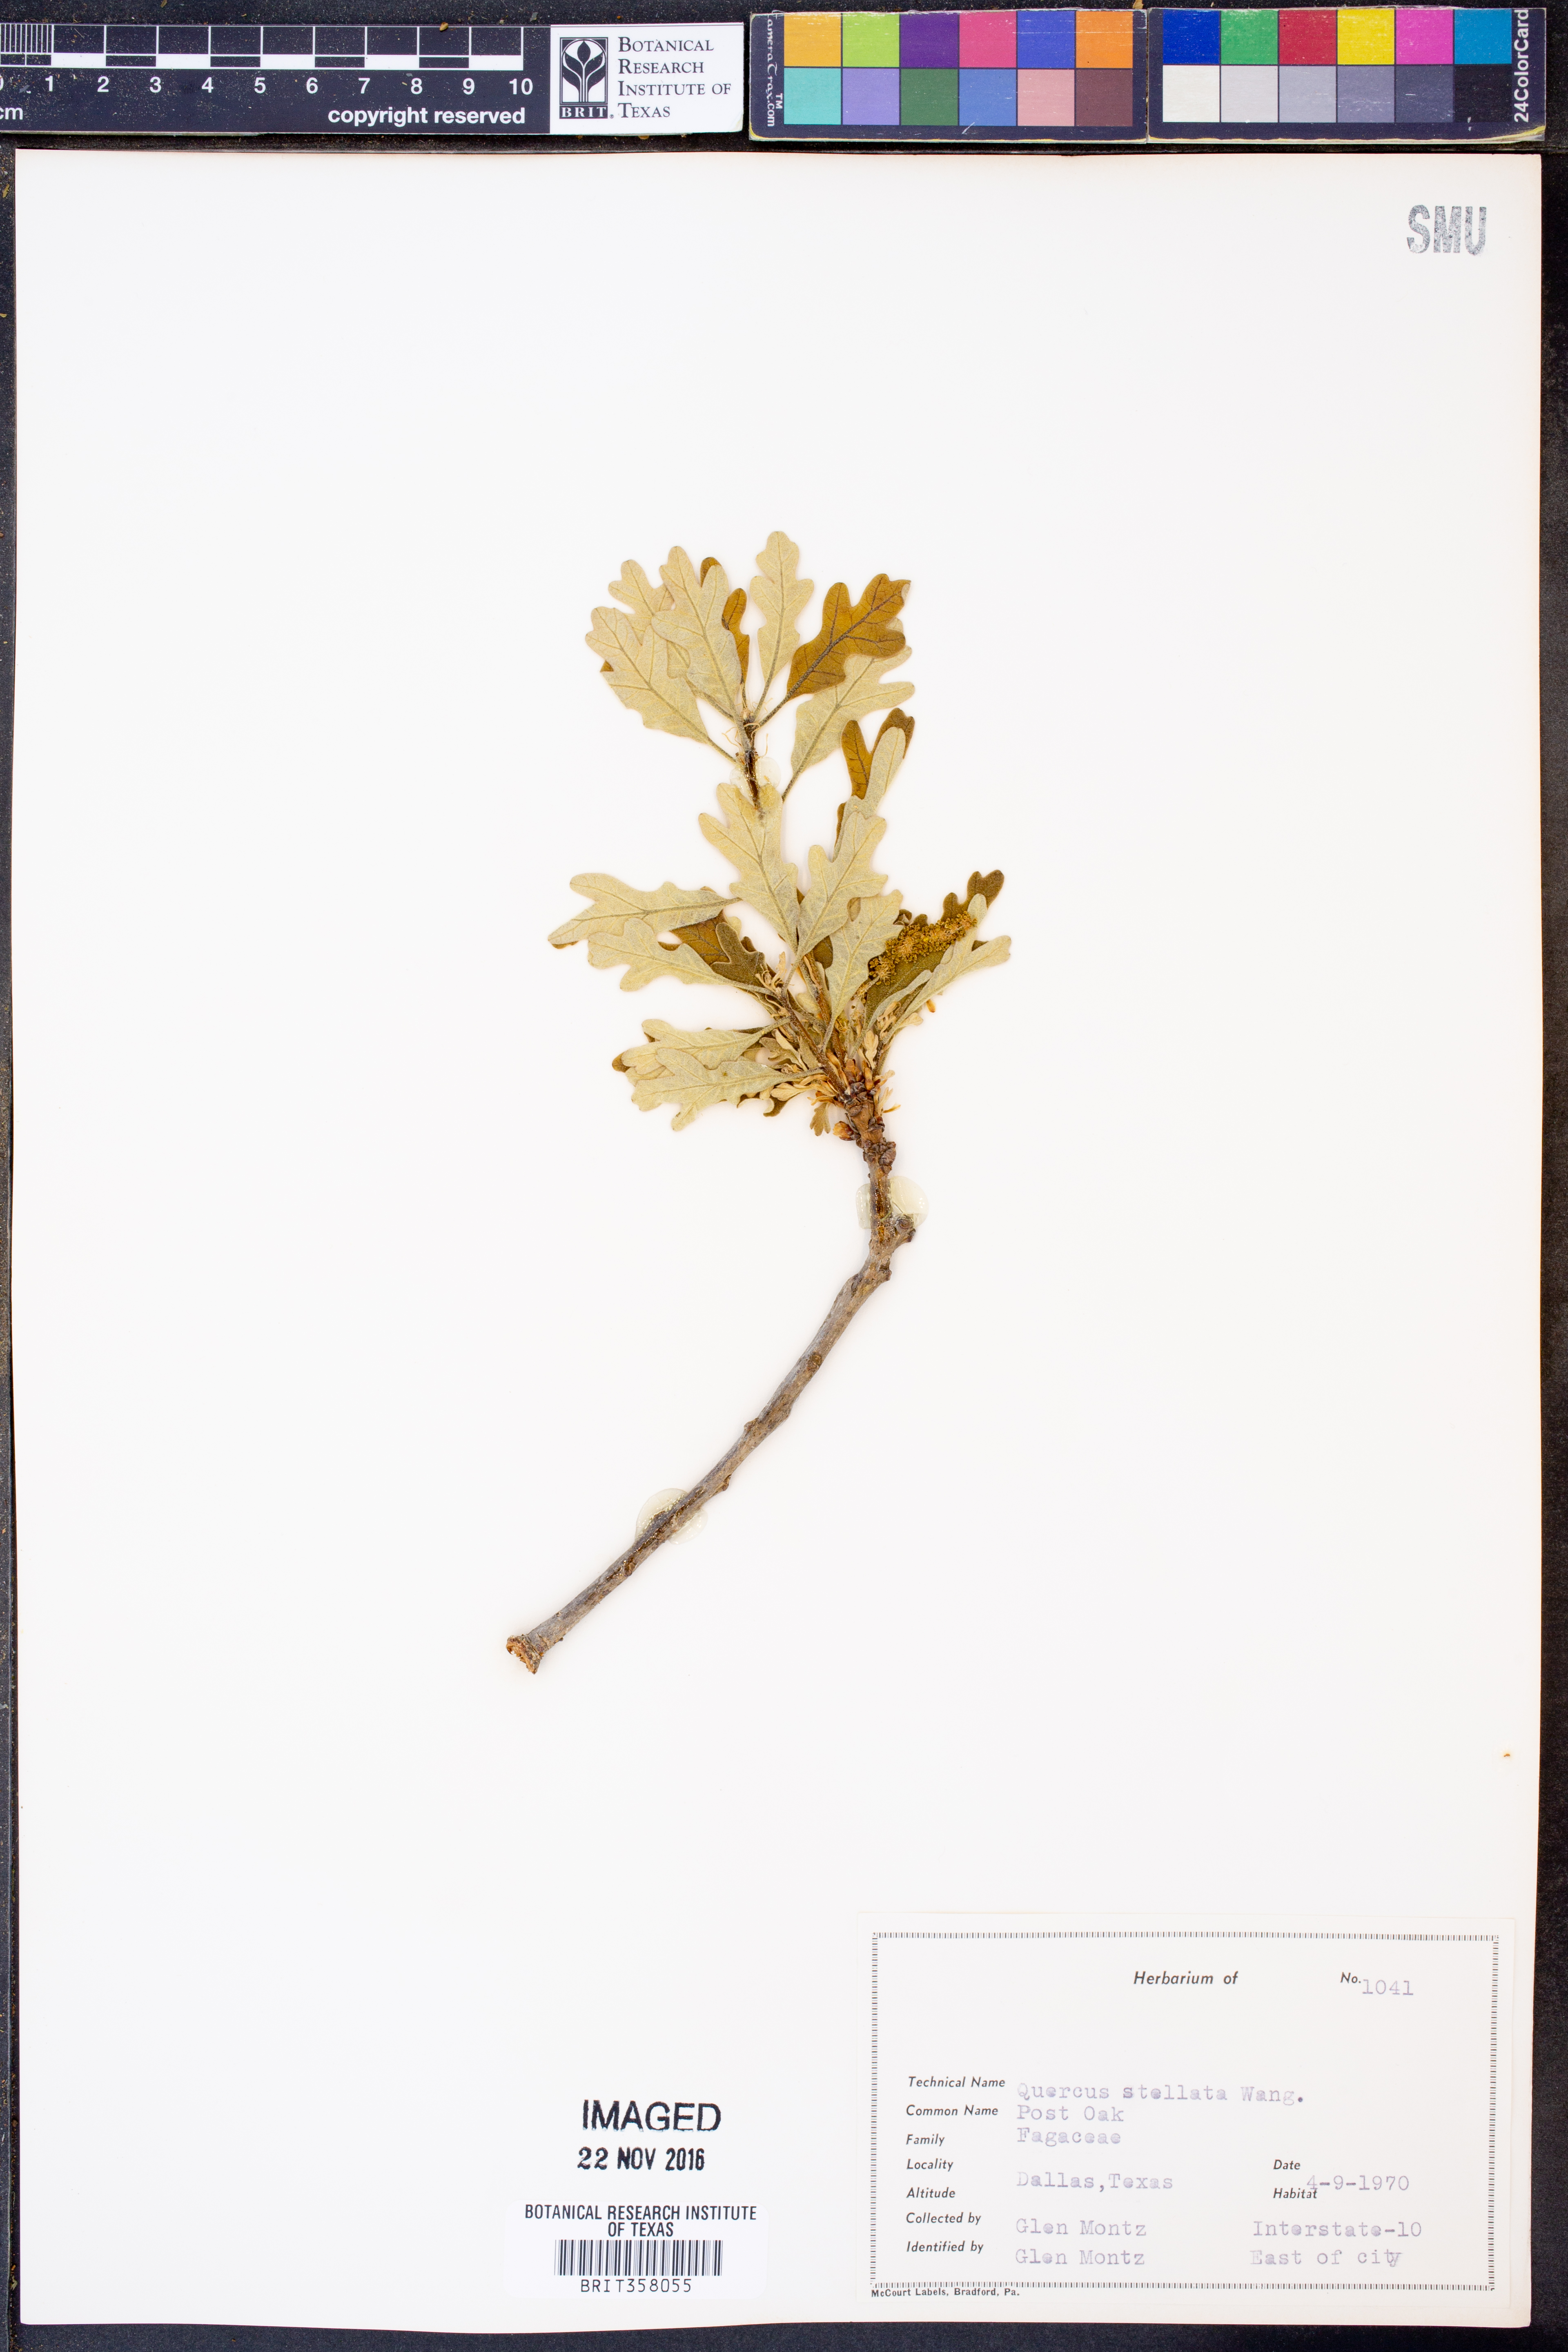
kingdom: Plantae
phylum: Tracheophyta
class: Magnoliopsida
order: Fagales
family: Fagaceae
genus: Quercus
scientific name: Quercus stellata
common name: Post oak
